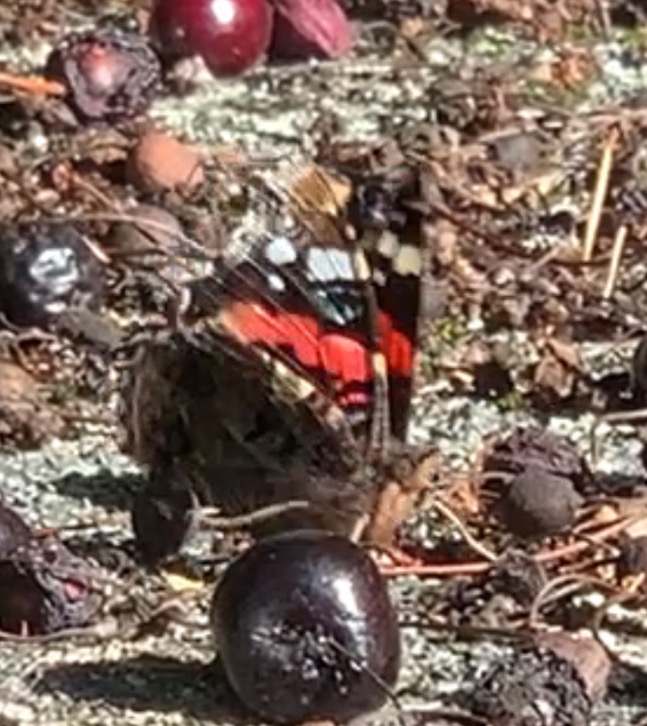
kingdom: Animalia
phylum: Arthropoda
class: Insecta
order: Lepidoptera
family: Nymphalidae
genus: Vanessa
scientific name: Vanessa atalanta
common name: Admiral
